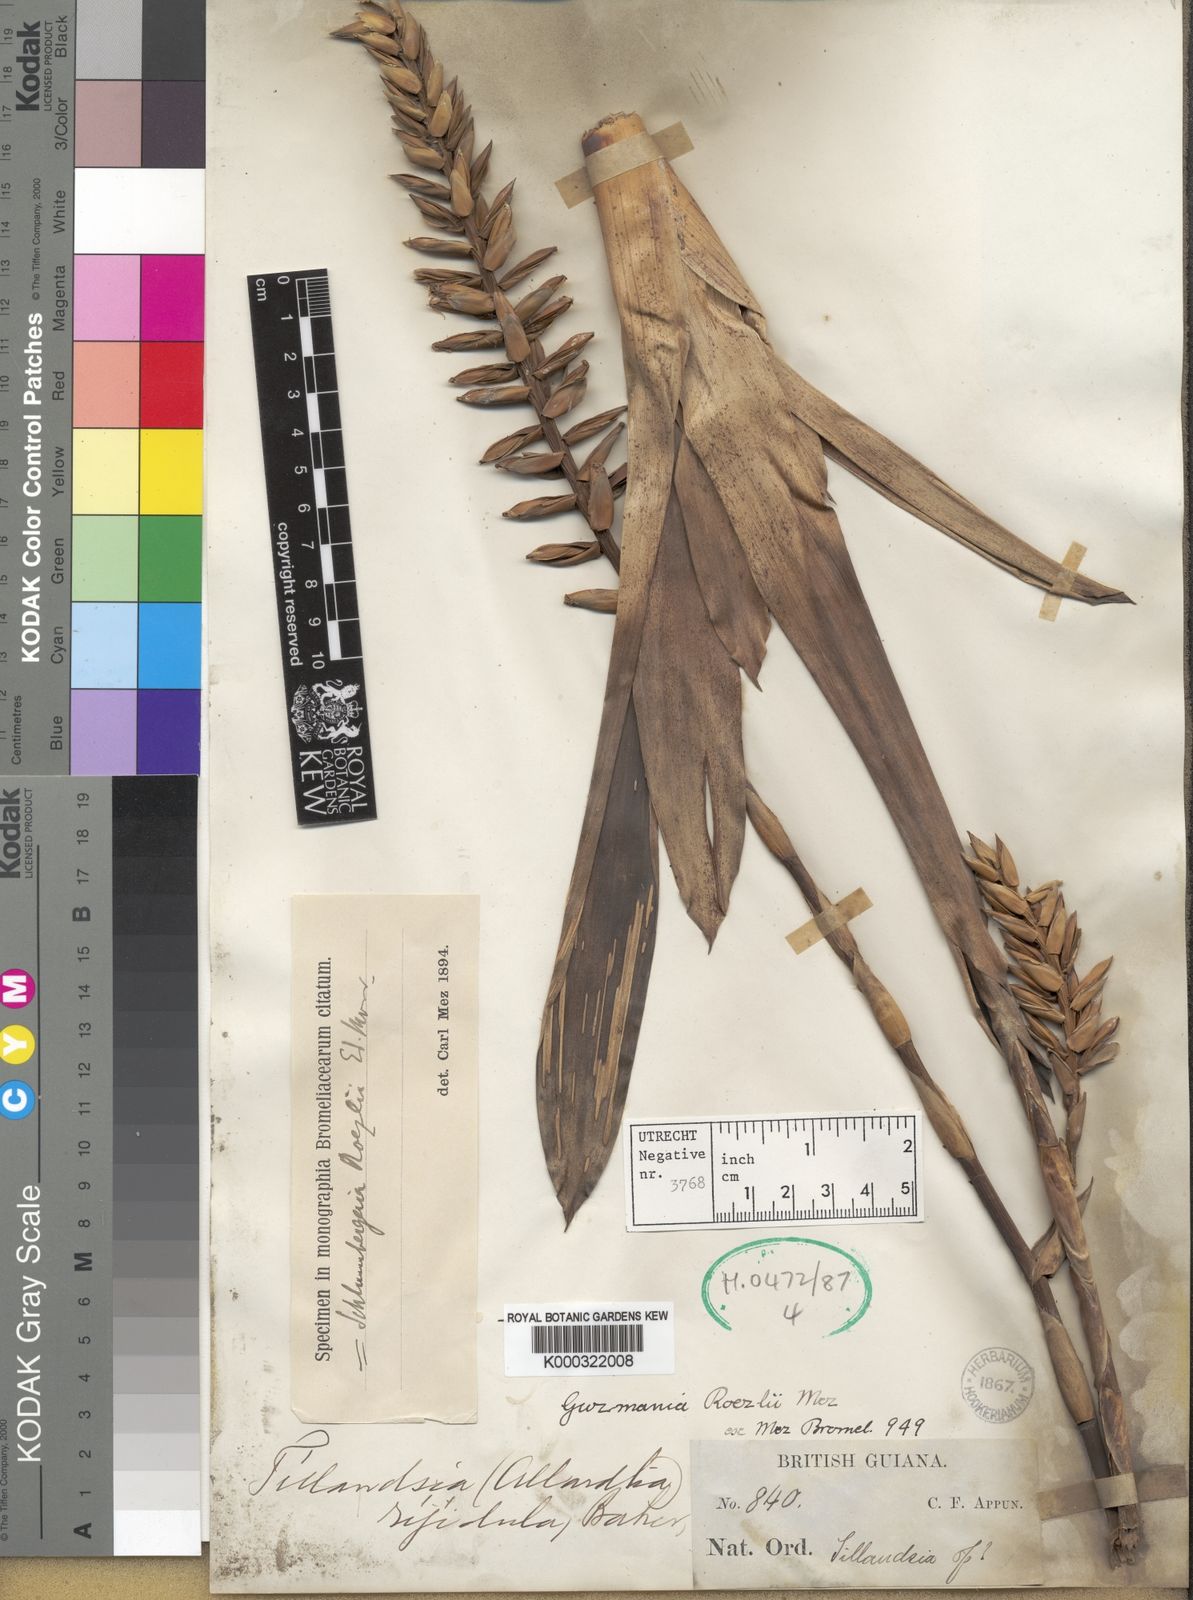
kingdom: Plantae
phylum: Tracheophyta
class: Liliopsida
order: Poales
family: Bromeliaceae
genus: Guzmania
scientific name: Guzmania roezlii
